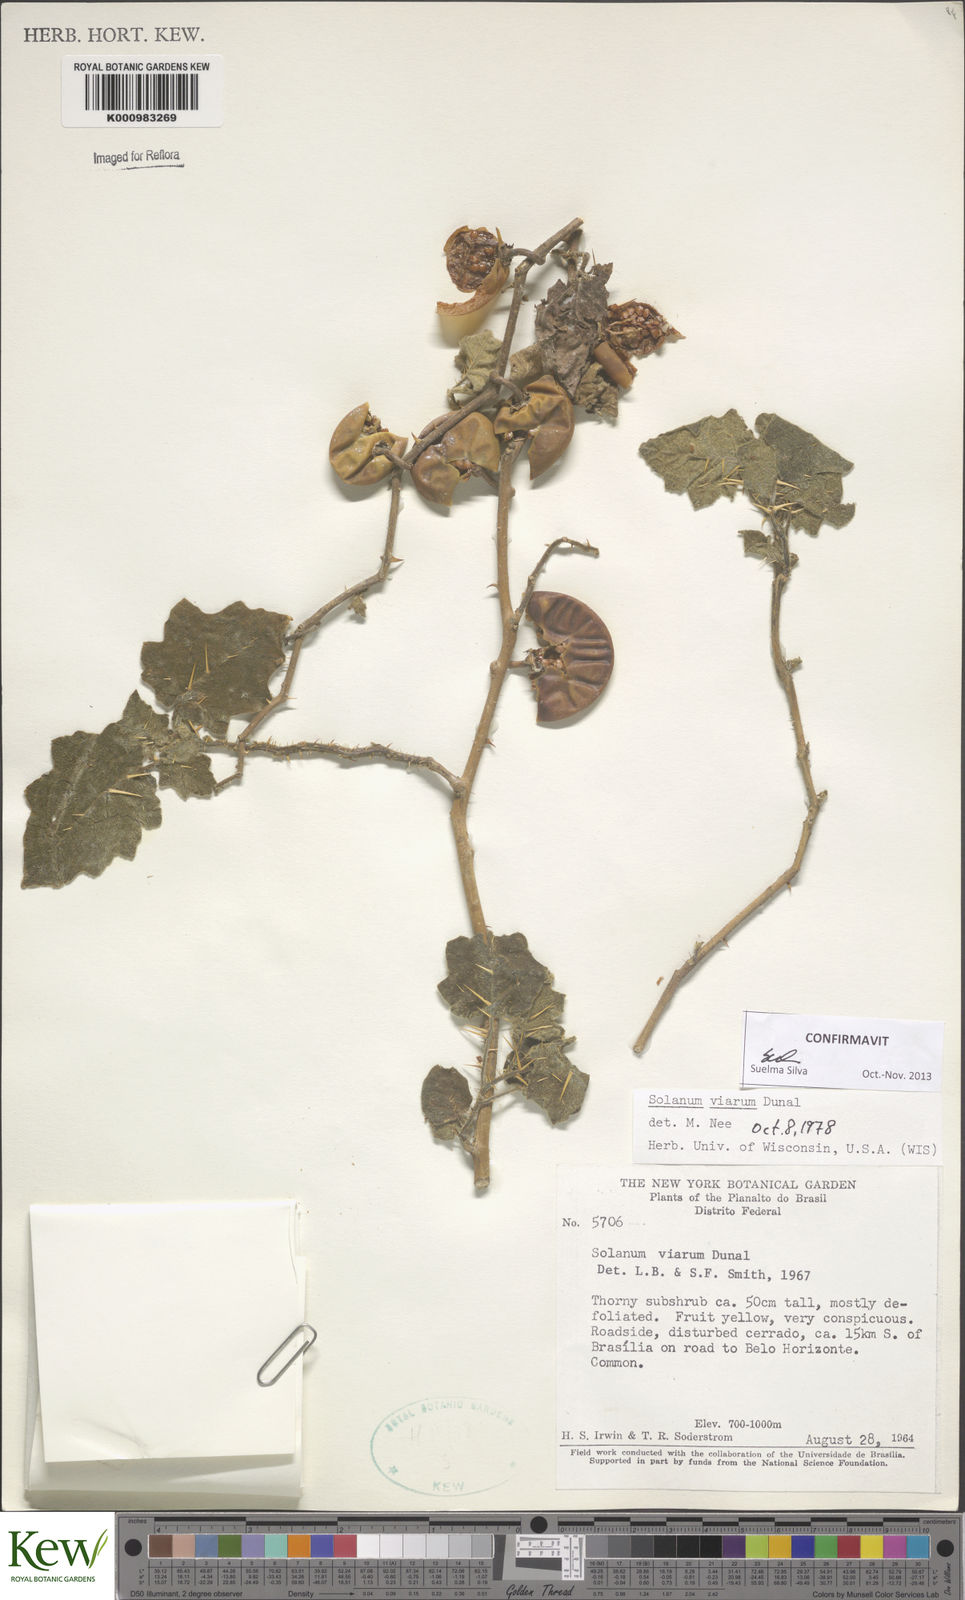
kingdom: Plantae
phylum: Tracheophyta
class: Magnoliopsida
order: Solanales
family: Solanaceae
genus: Solanum
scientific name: Solanum viarum
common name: Tropical soda apple
